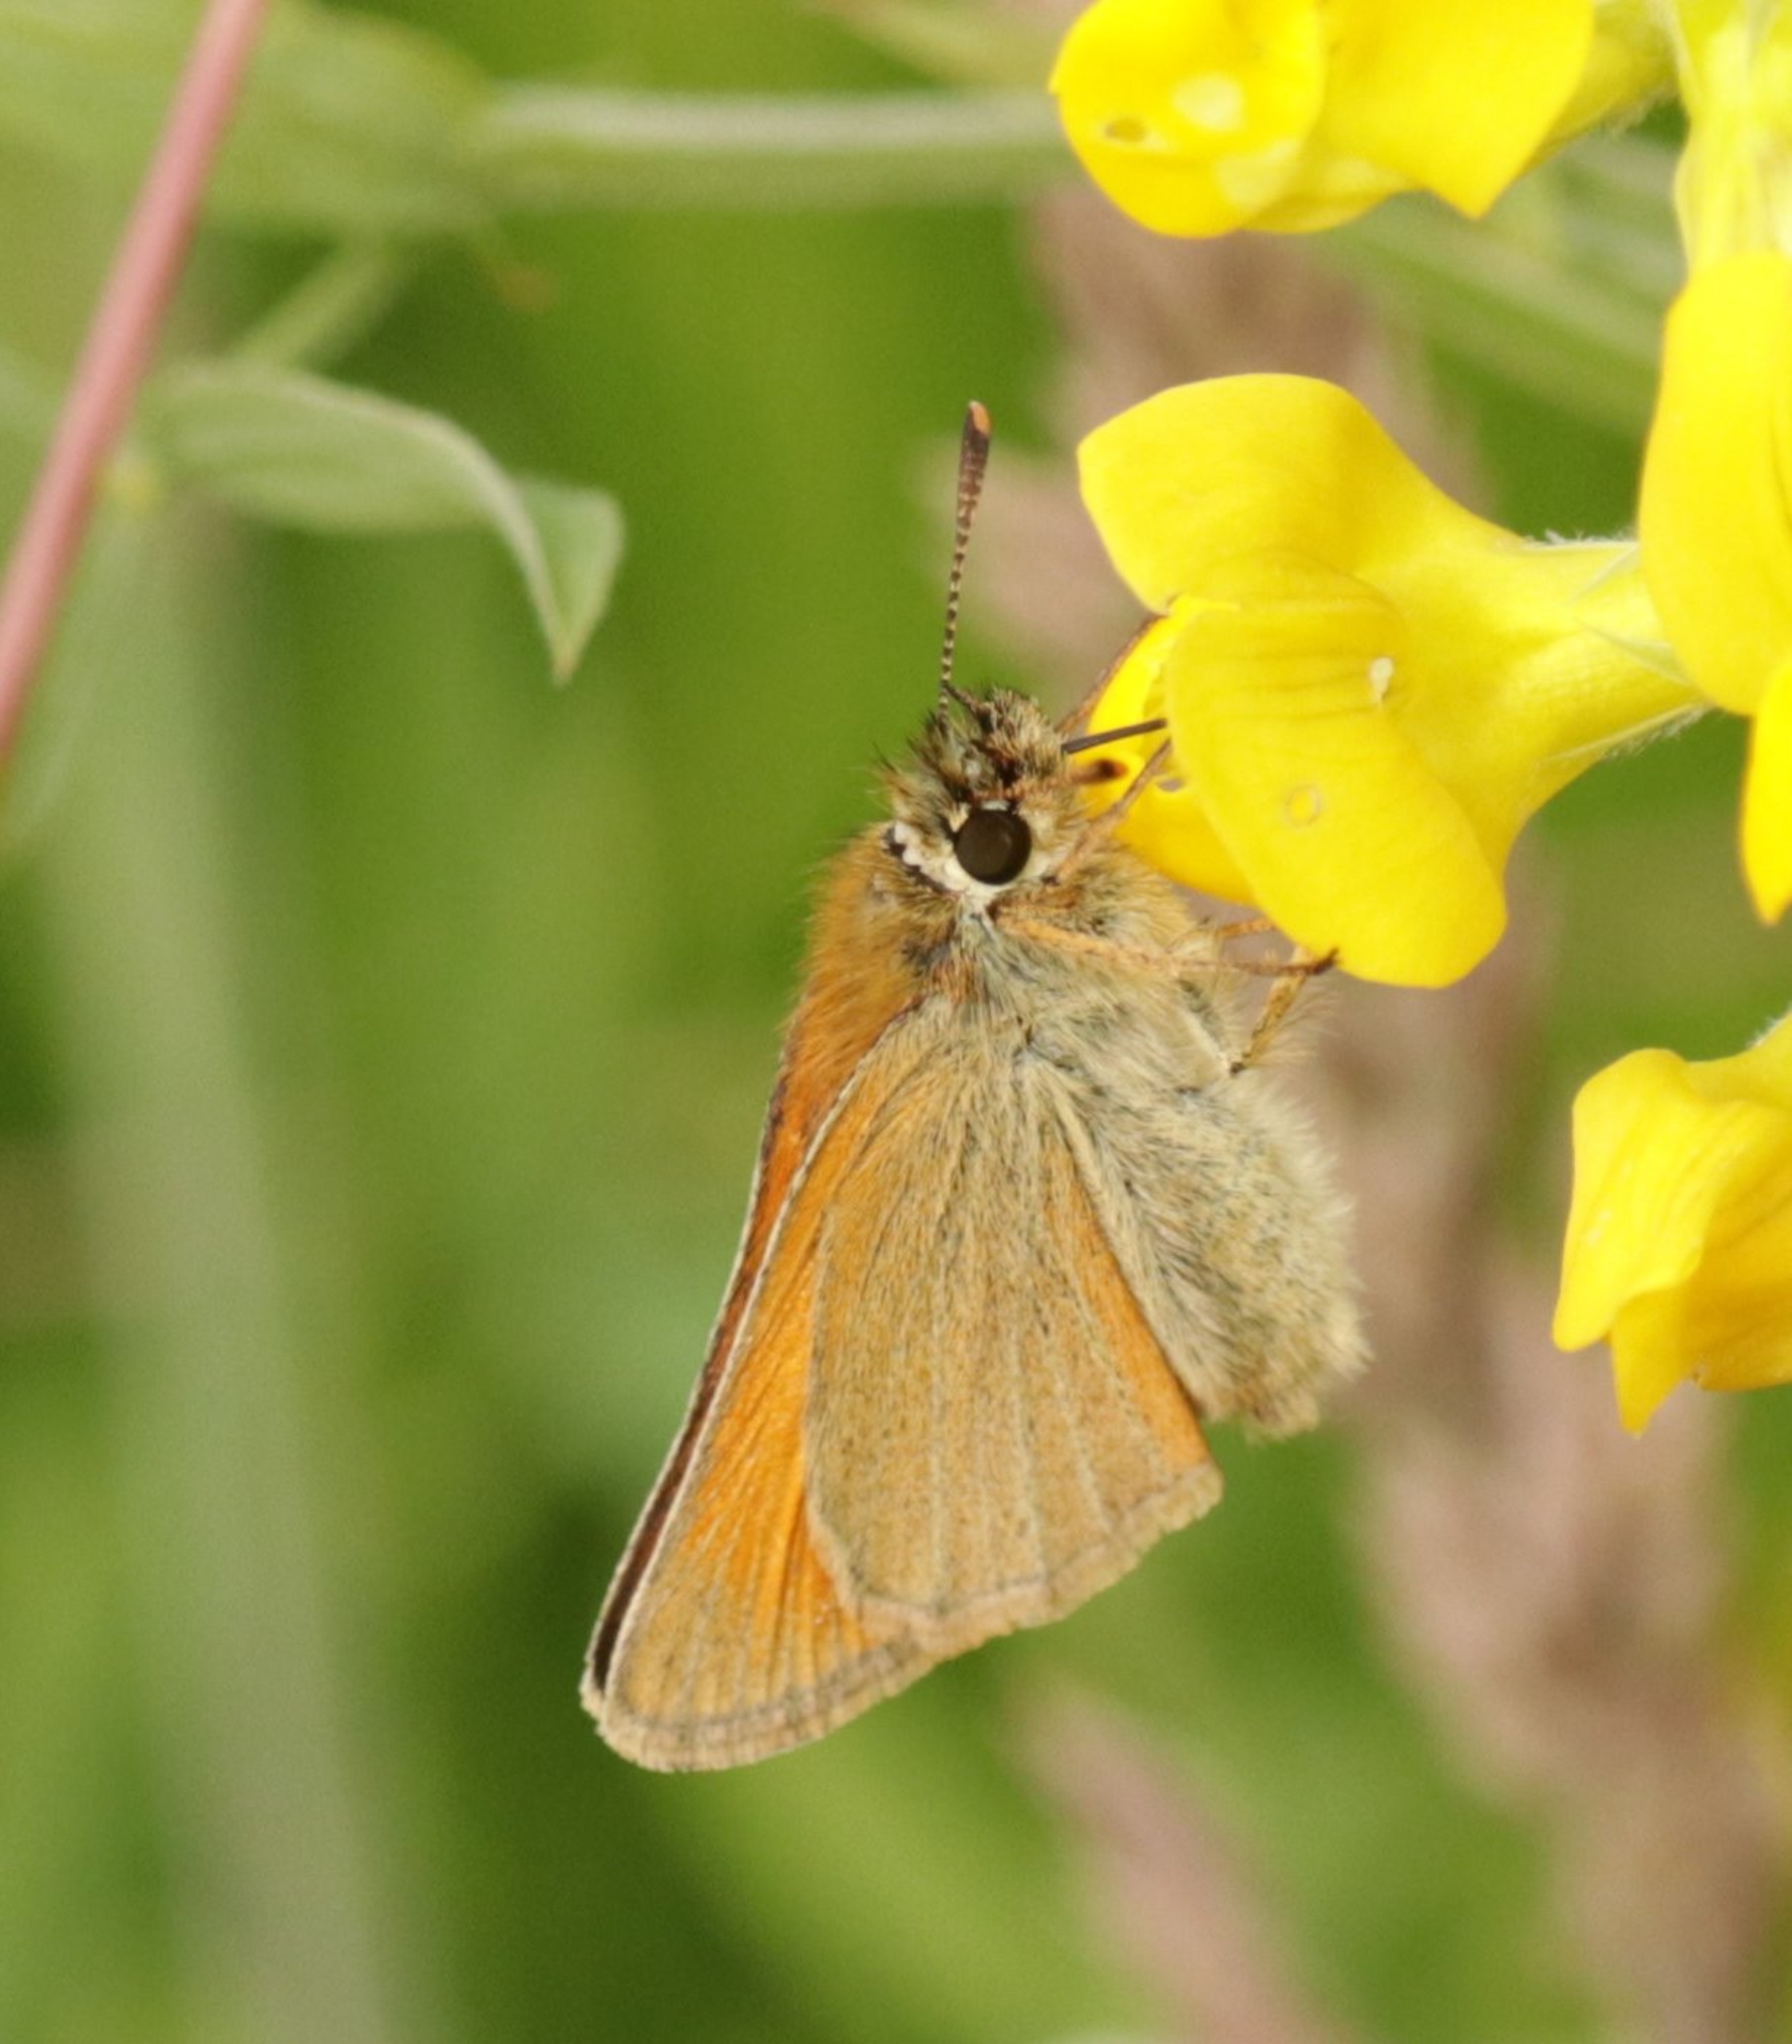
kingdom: Animalia
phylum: Arthropoda
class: Insecta
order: Lepidoptera
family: Hesperiidae
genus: Thymelicus
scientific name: Thymelicus sylvestris
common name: Skråstregbredpande
